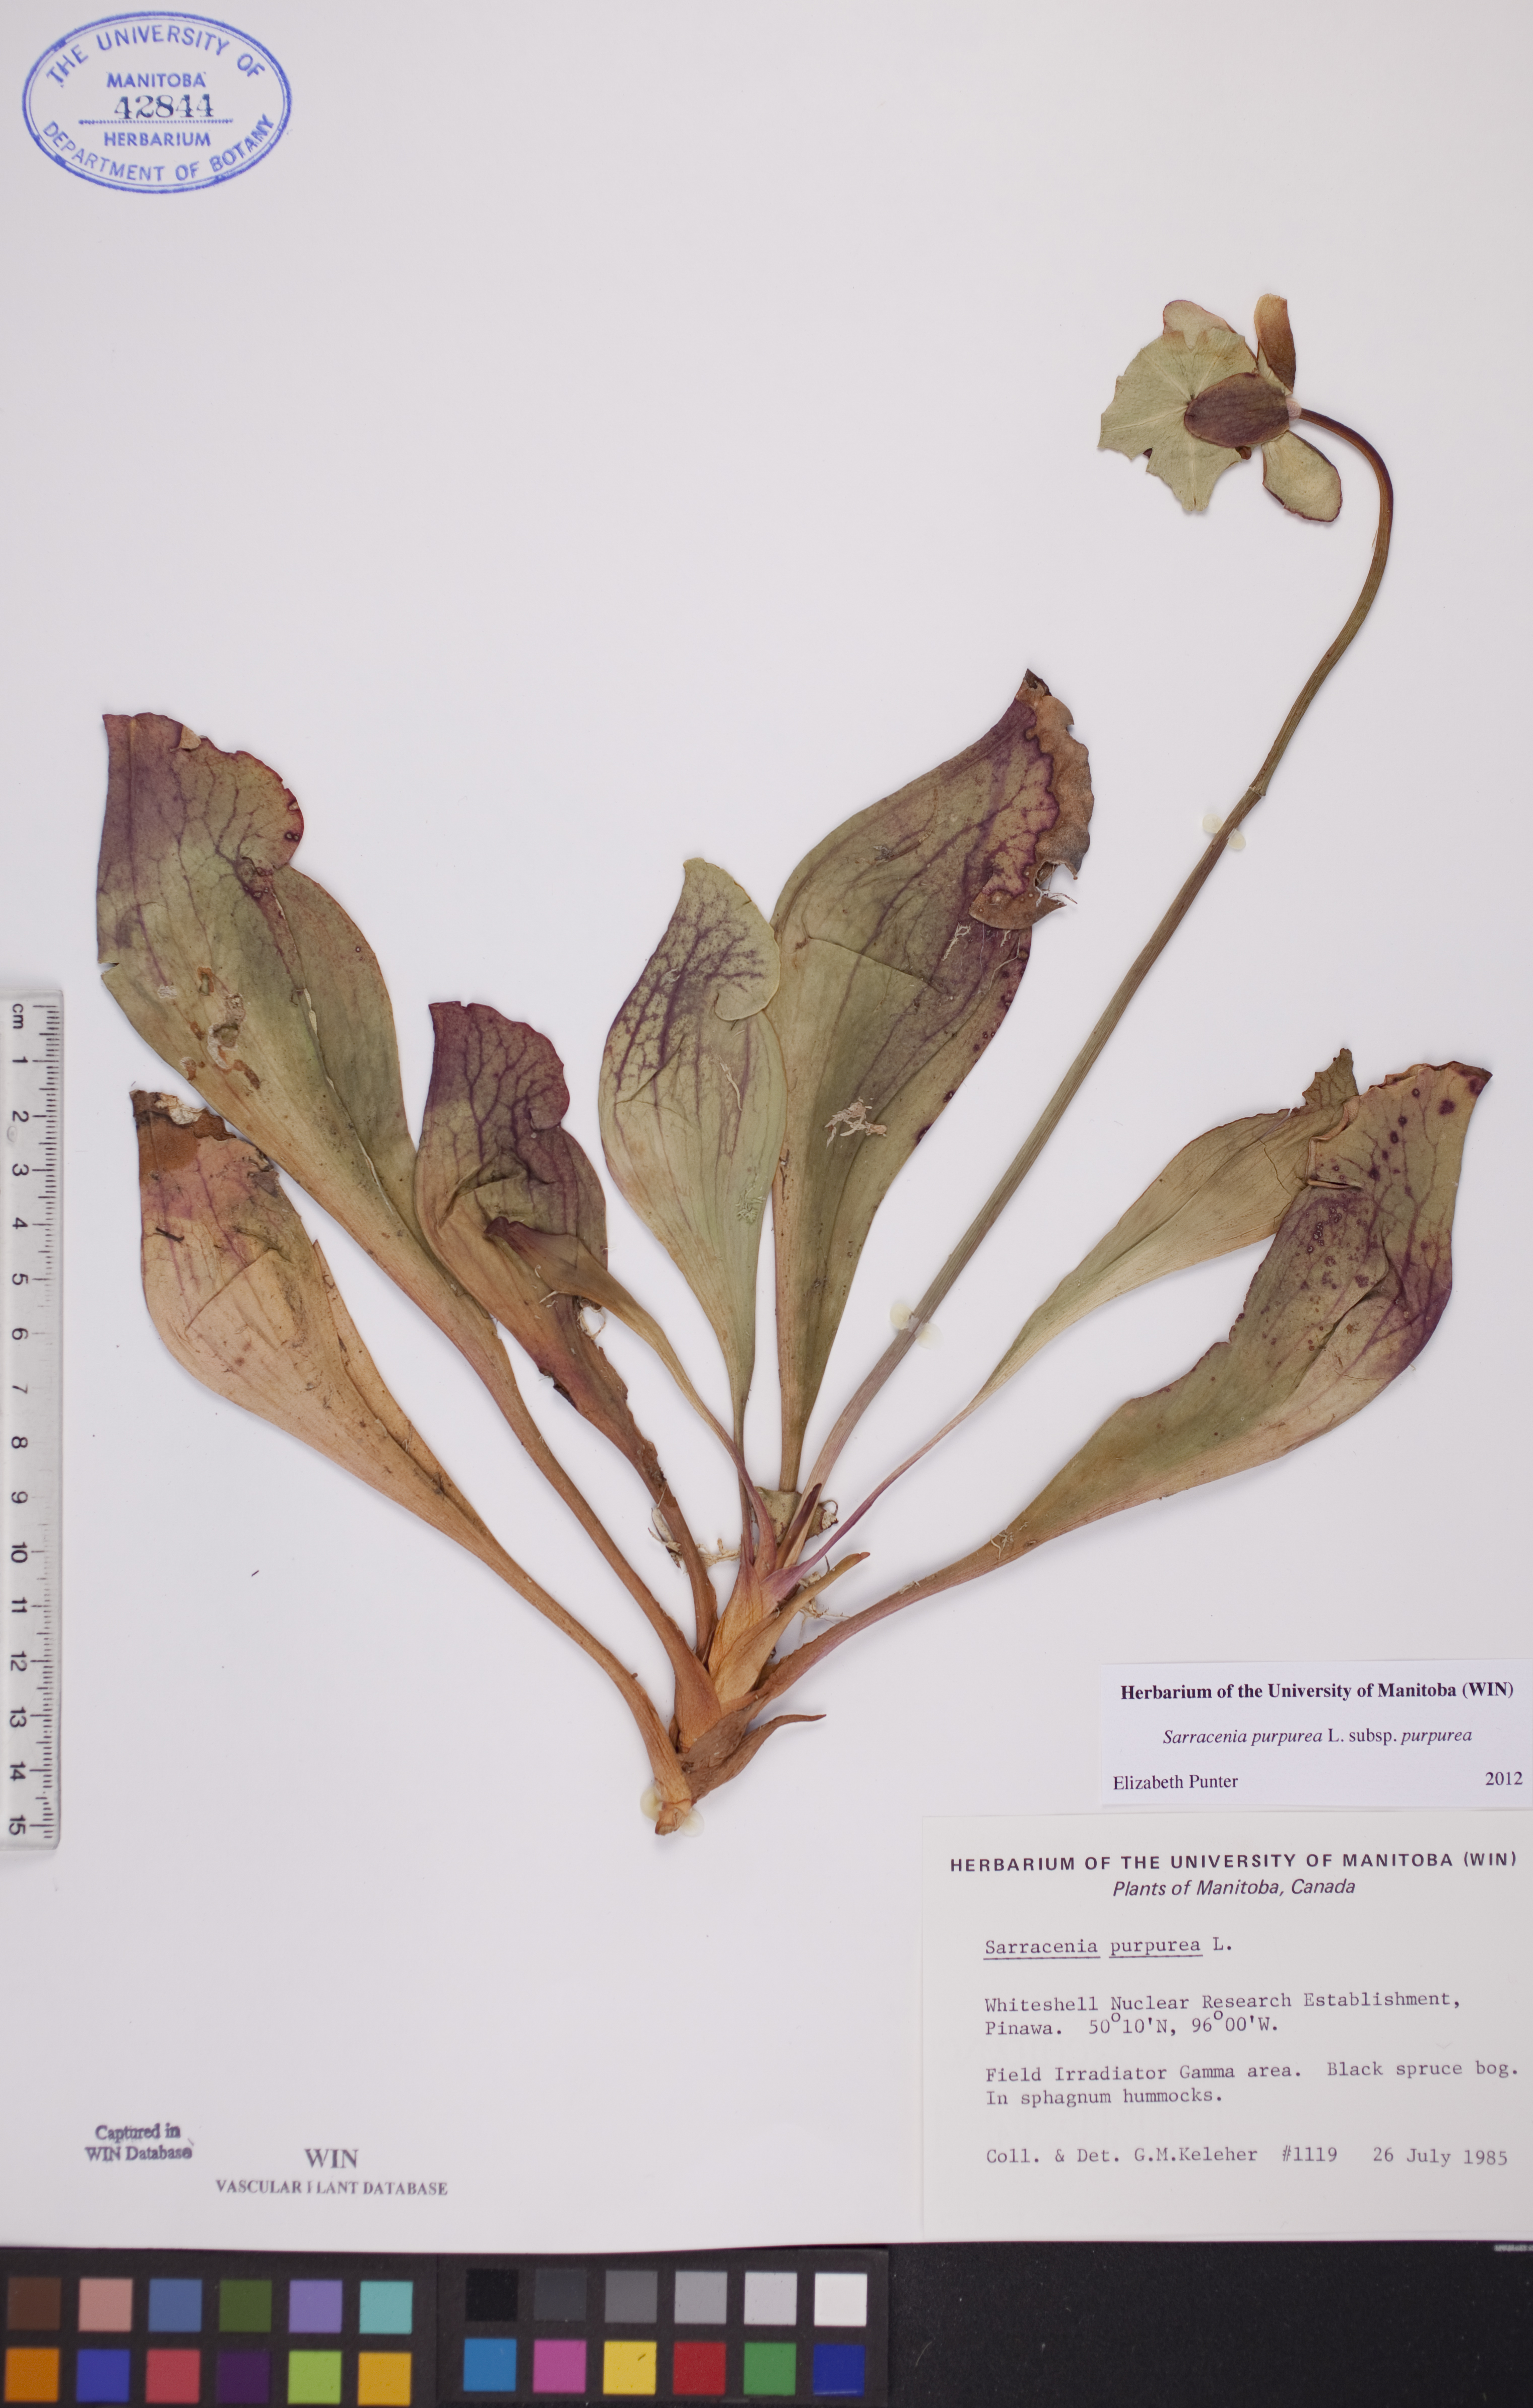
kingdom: Plantae
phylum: Tracheophyta
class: Magnoliopsida
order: Ericales
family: Sarraceniaceae
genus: Sarracenia
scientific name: Sarracenia purpurea
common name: Pitcherplant
